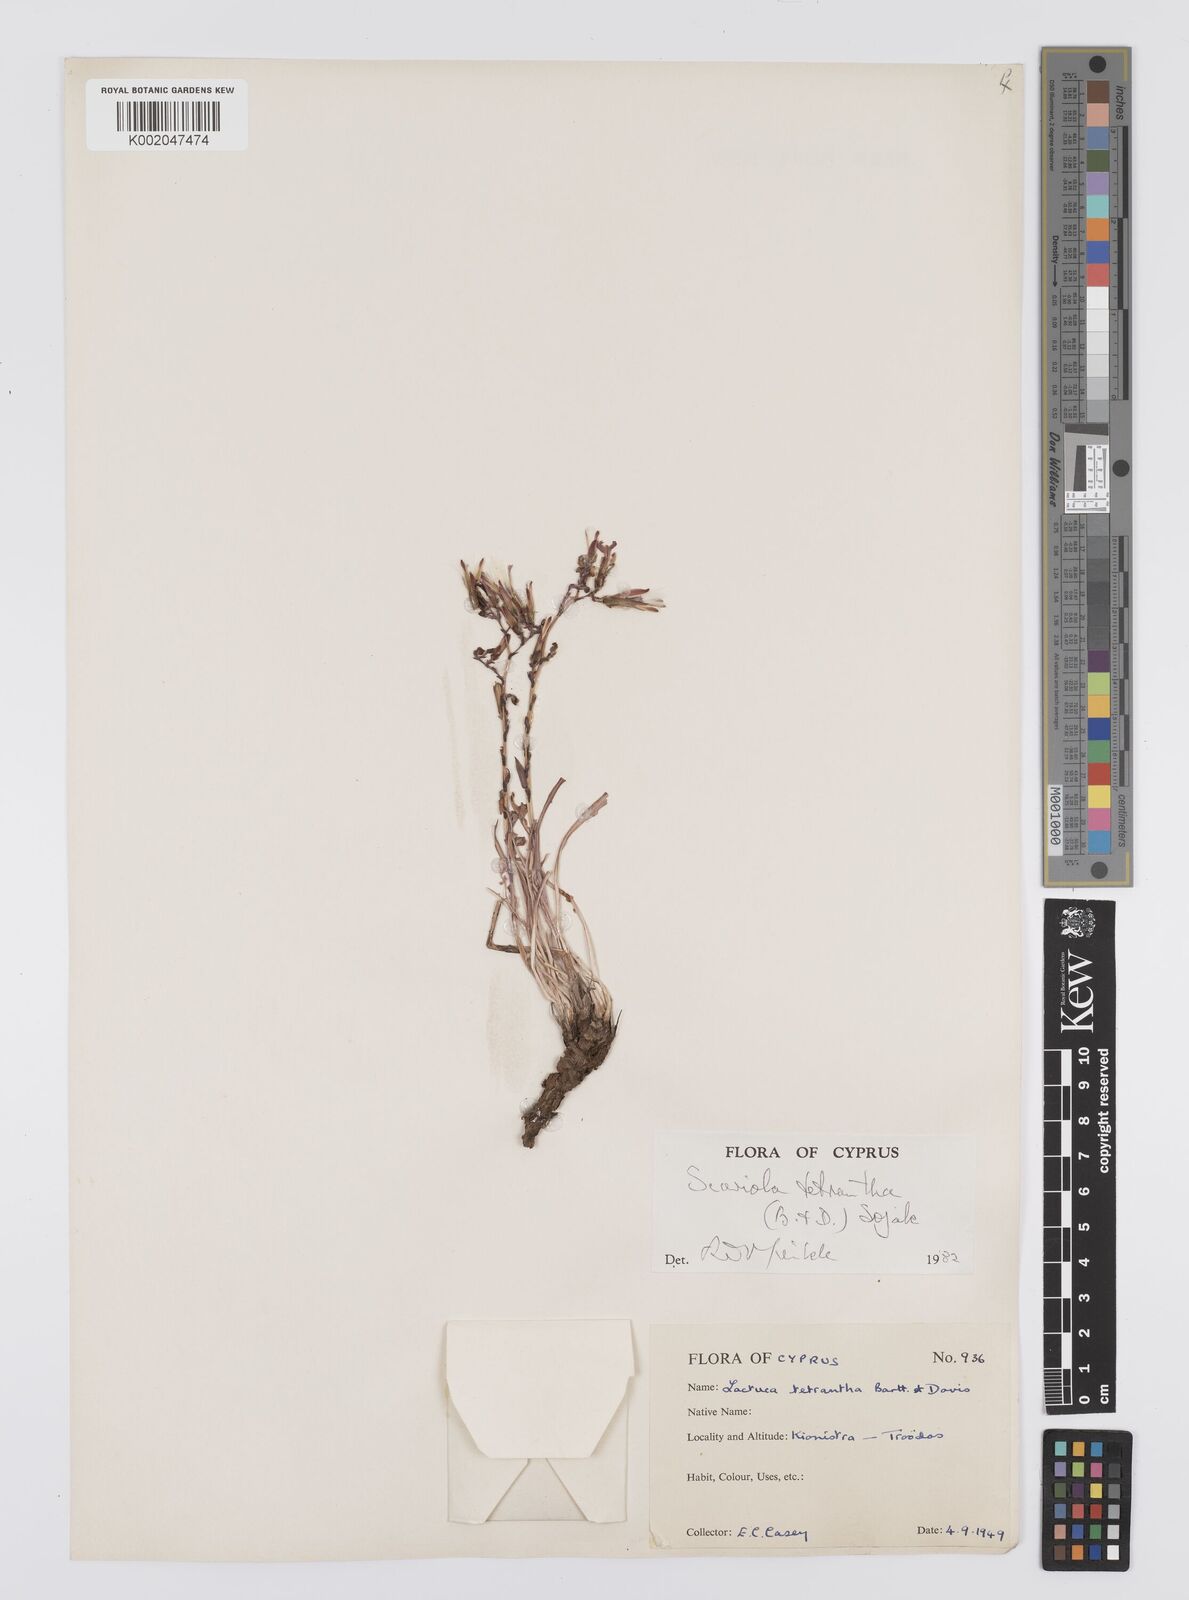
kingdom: Plantae
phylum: Tracheophyta
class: Magnoliopsida
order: Asterales
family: Asteraceae
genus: Lactuca
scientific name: Lactuca tetrantha
